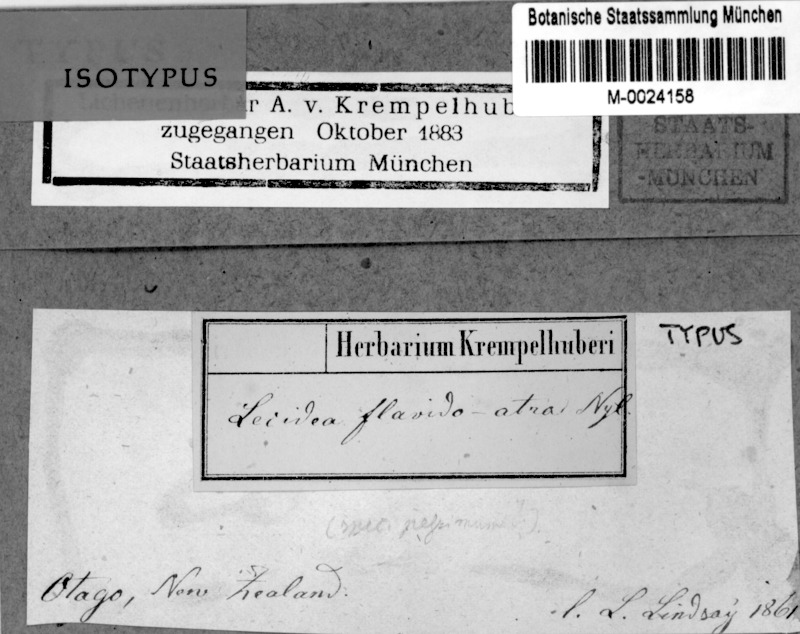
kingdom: Fungi
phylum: Ascomycota
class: Lecanoromycetes
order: Teloschistales
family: Megalosporaceae
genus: Megaloblastenia
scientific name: Megaloblastenia flavidoatra
